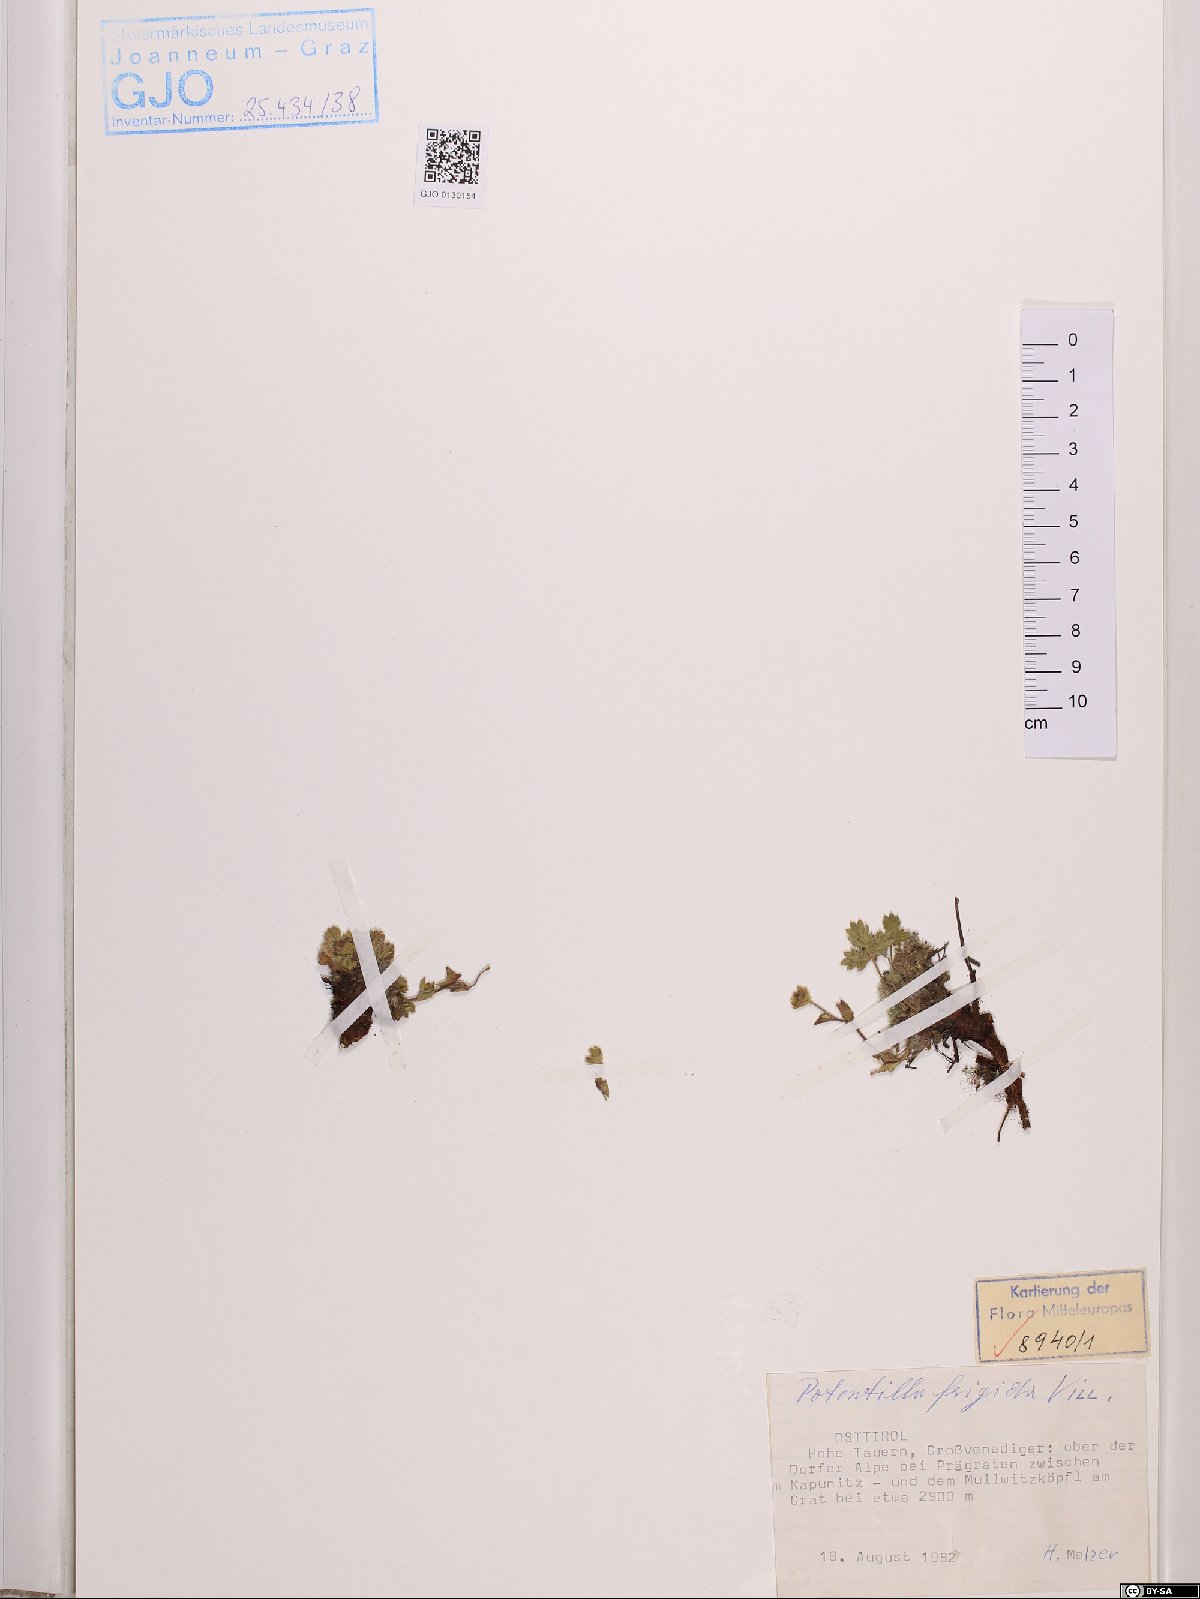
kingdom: Plantae
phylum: Tracheophyta
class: Magnoliopsida
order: Rosales
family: Rosaceae
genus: Potentilla
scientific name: Potentilla frigida
